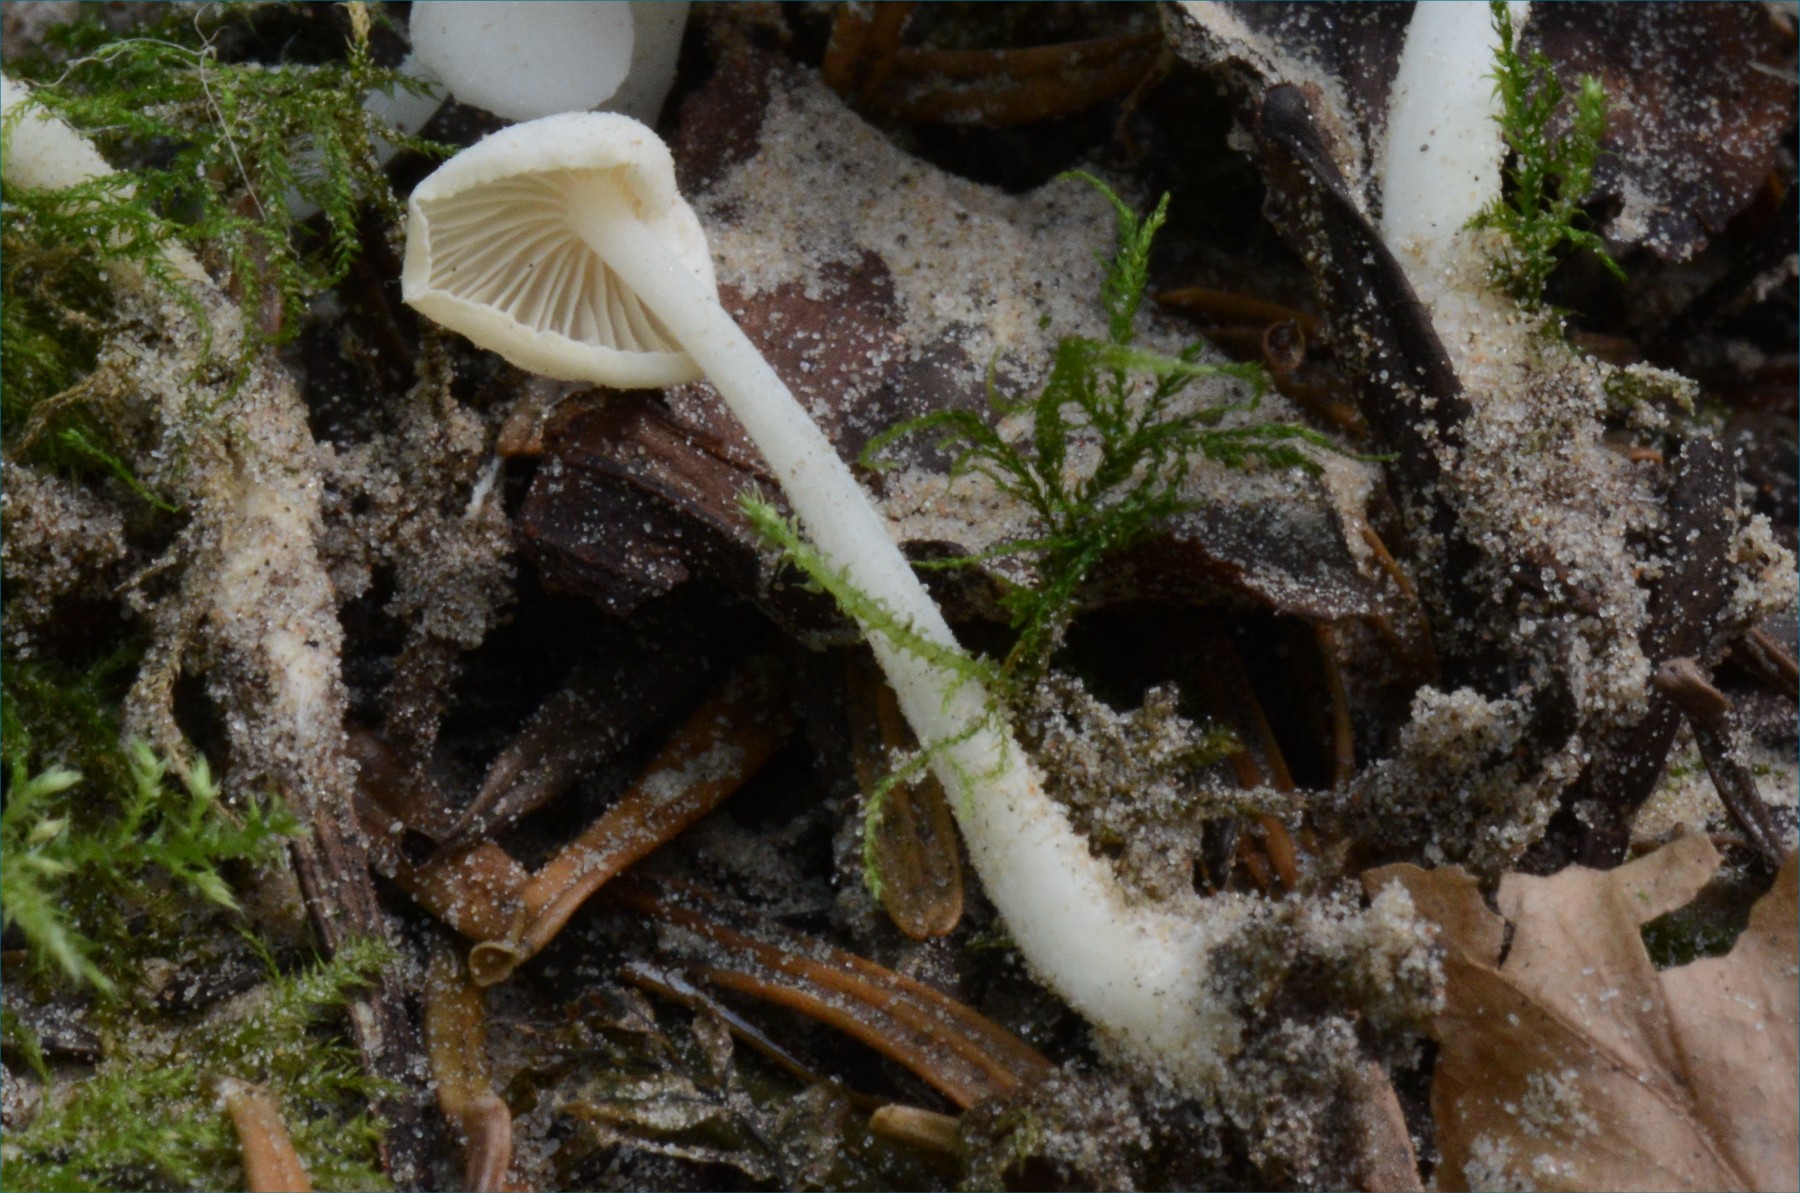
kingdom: Fungi
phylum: Basidiomycota
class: Agaricomycetes
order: Agaricales
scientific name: Agaricales
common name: champignonordenen
